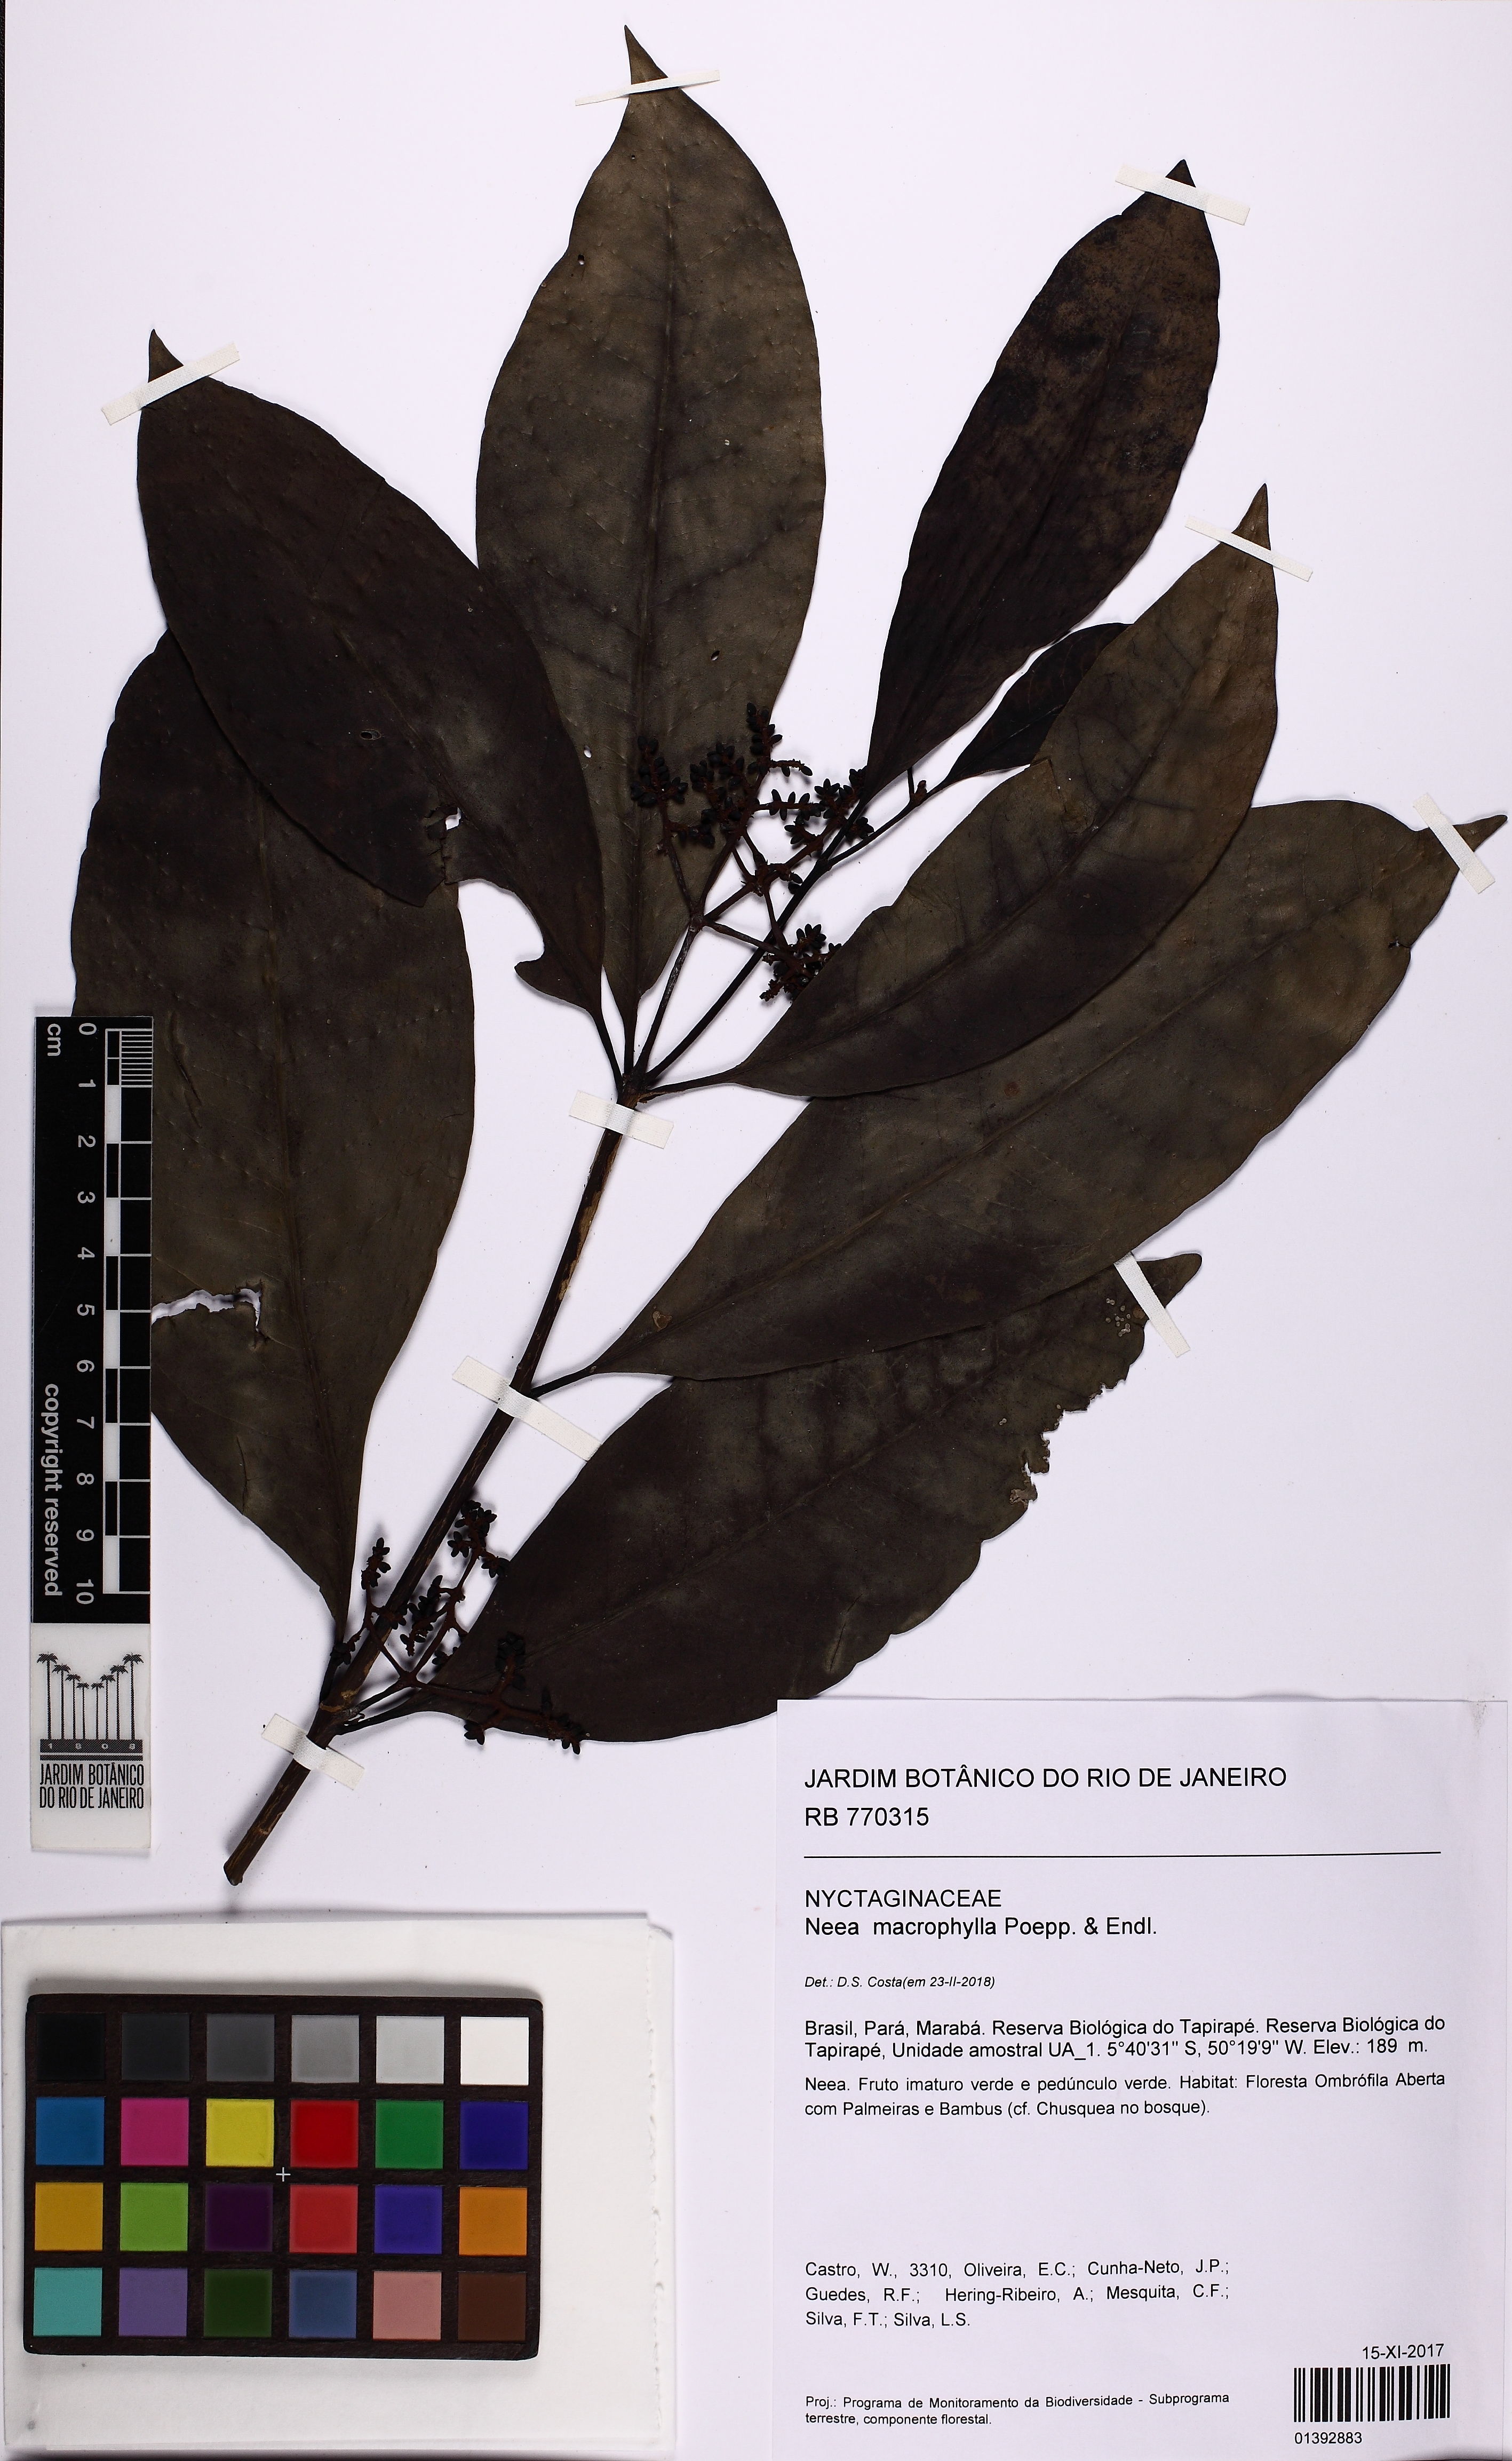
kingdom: Plantae
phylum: Tracheophyta
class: Magnoliopsida
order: Caryophyllales
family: Nyctaginaceae
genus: Neea
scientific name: Neea macrophylla
